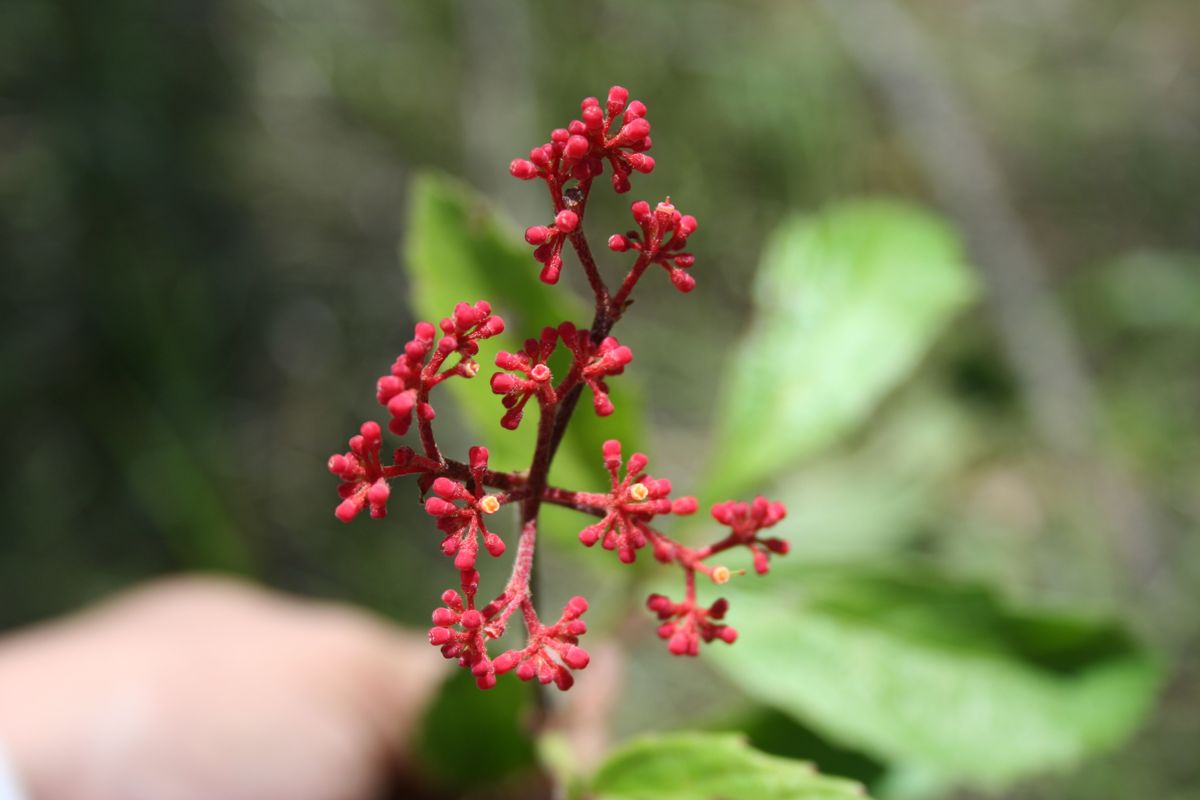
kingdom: Plantae
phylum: Tracheophyta
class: Magnoliopsida
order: Vitales
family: Vitaceae
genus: Cissus
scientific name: Cissus
